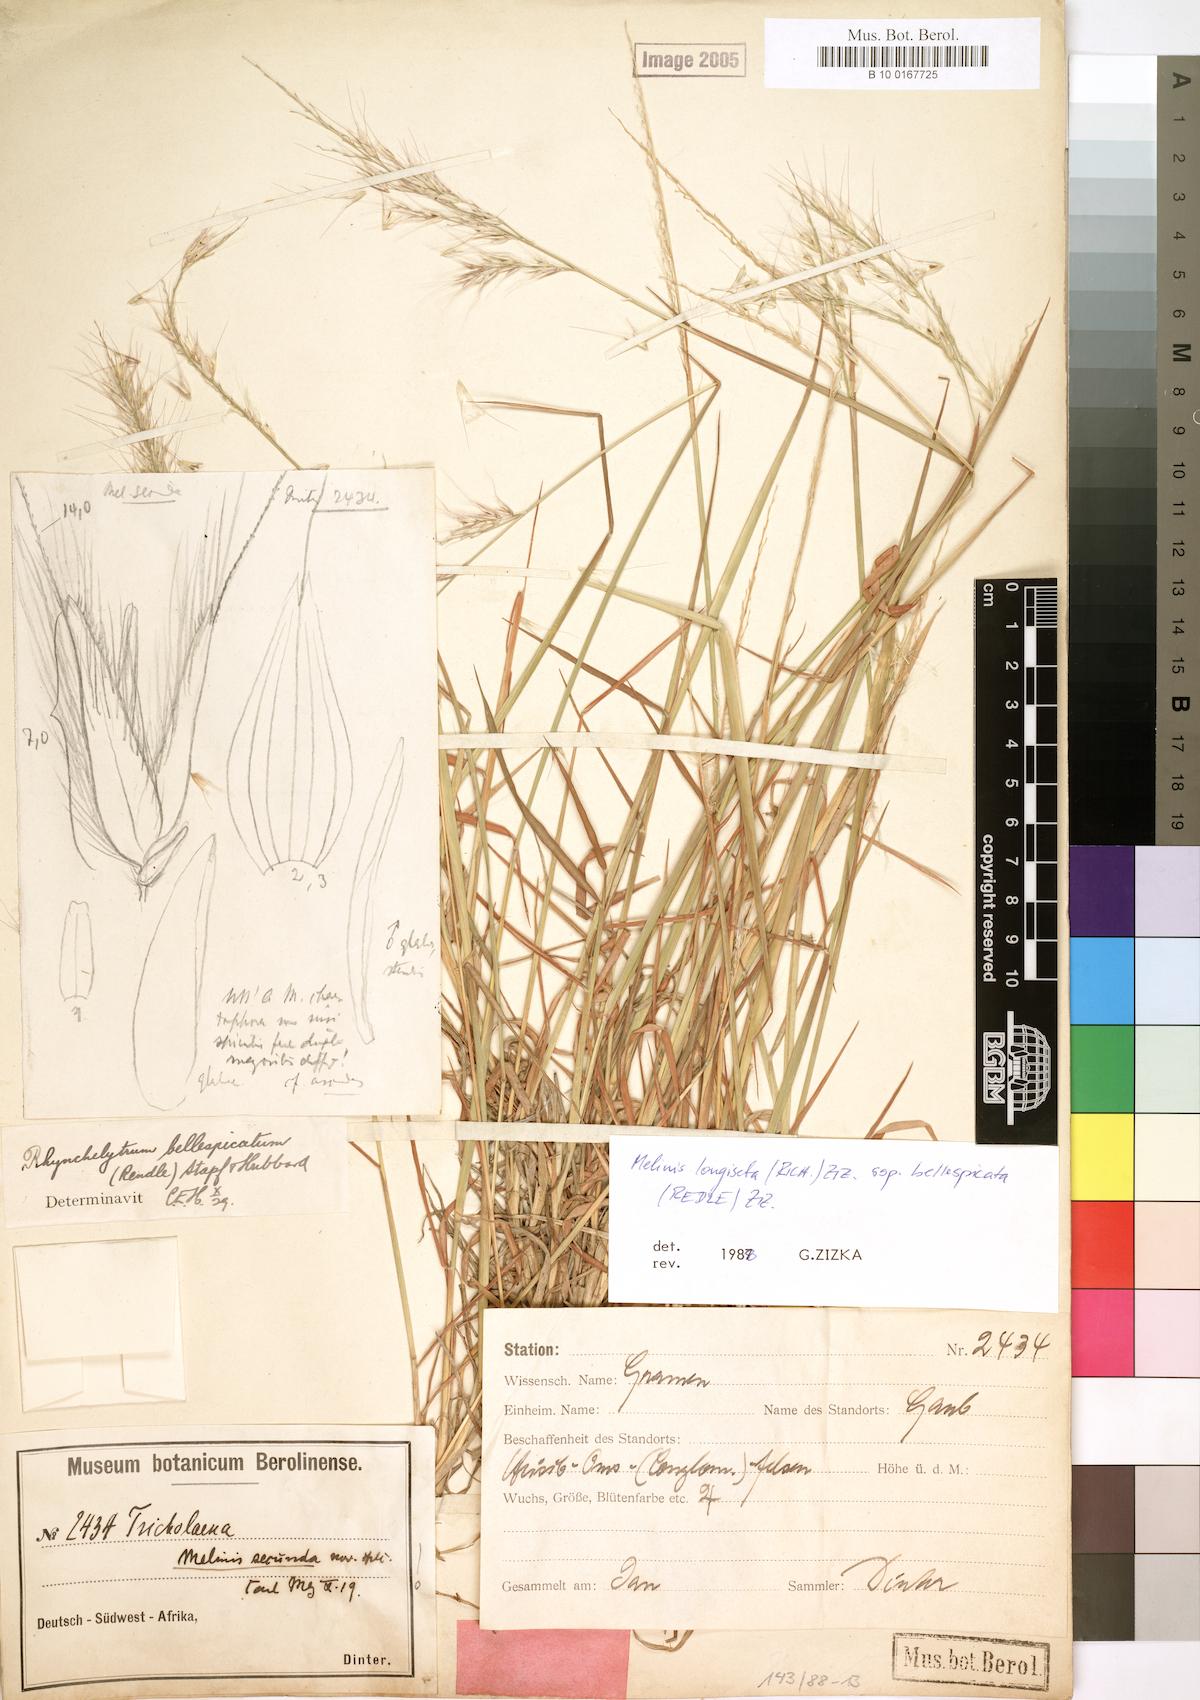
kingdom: Plantae
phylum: Tracheophyta
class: Liliopsida
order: Poales
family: Poaceae
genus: Melinis
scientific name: Melinis longiseta
